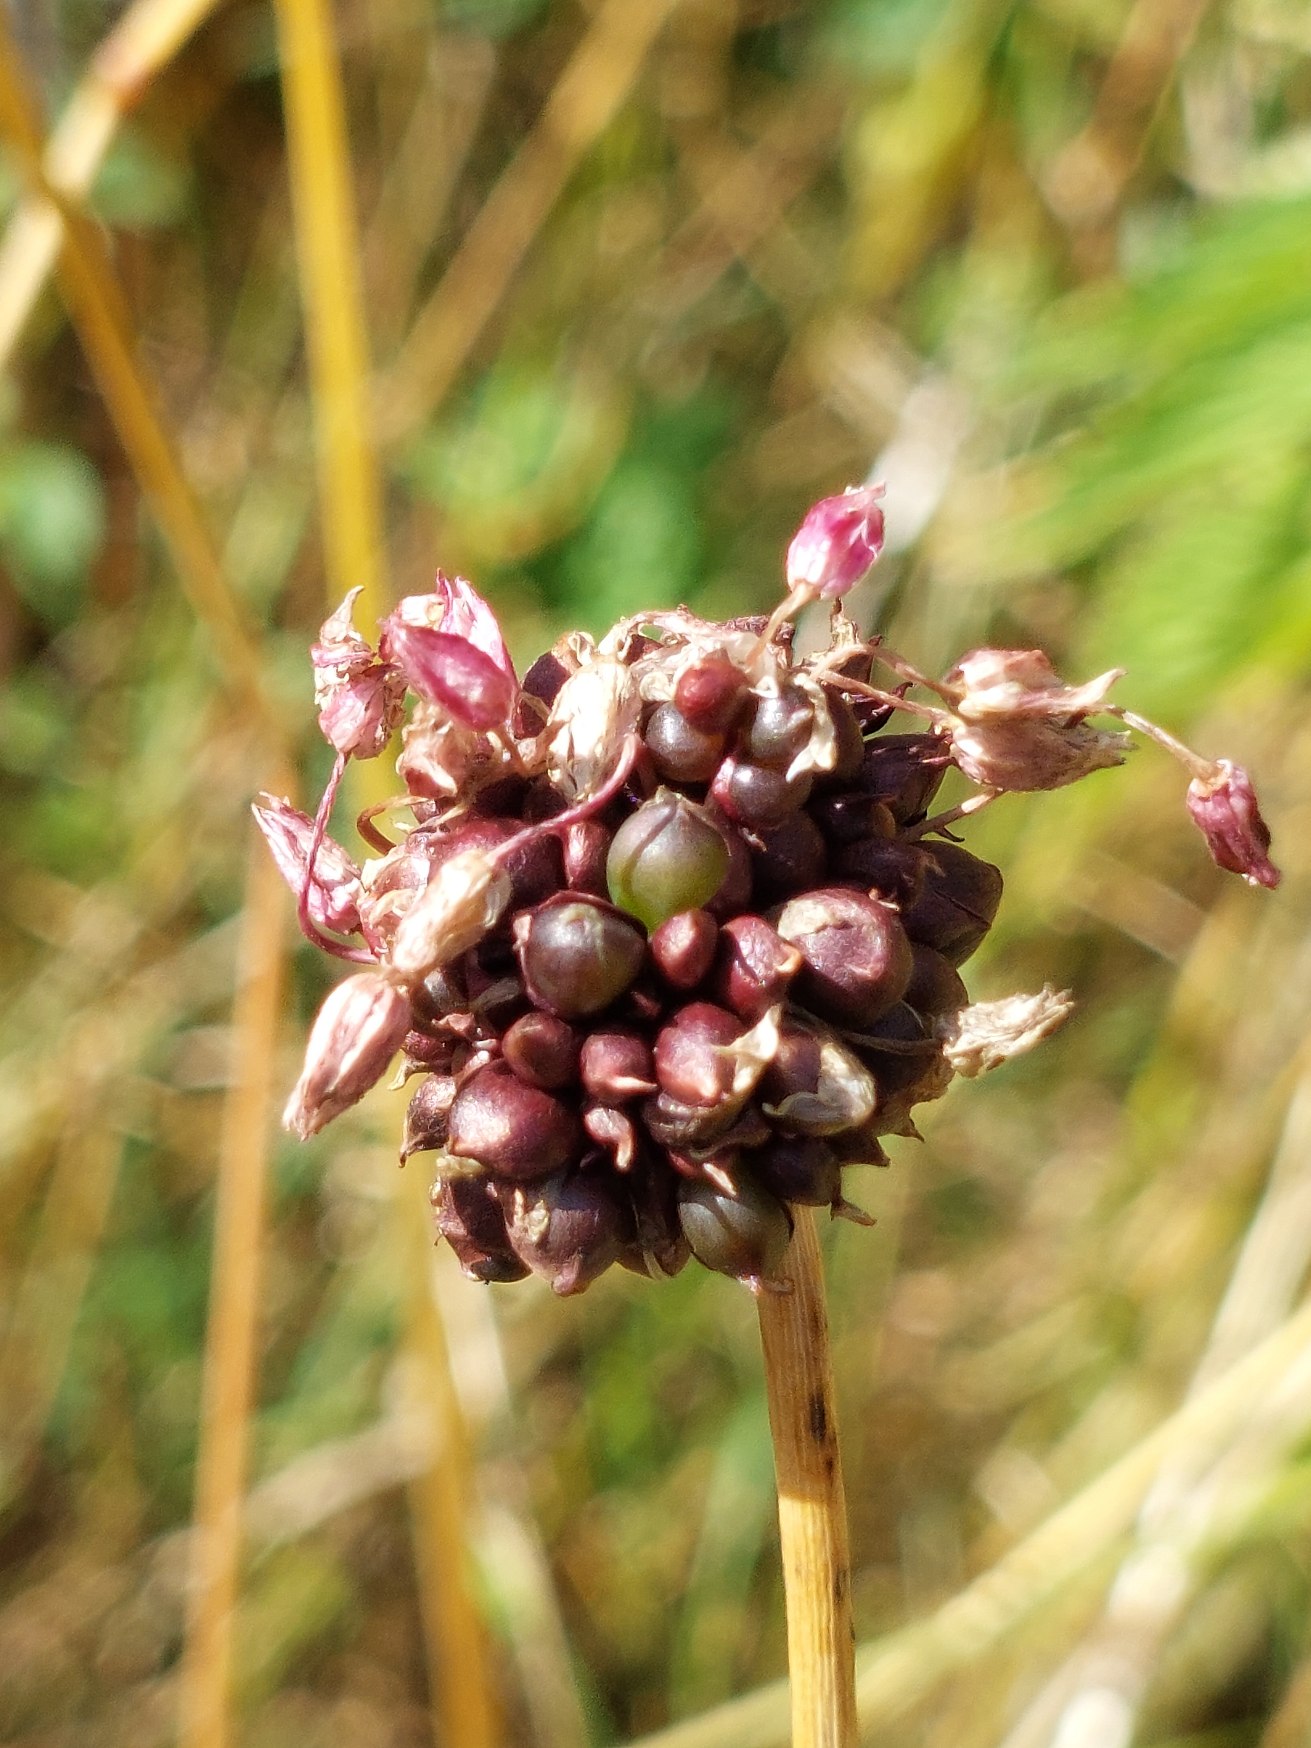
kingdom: Plantae
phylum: Tracheophyta
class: Liliopsida
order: Asparagales
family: Amaryllidaceae
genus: Allium
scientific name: Allium scorodoprasum
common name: Skov-løg
